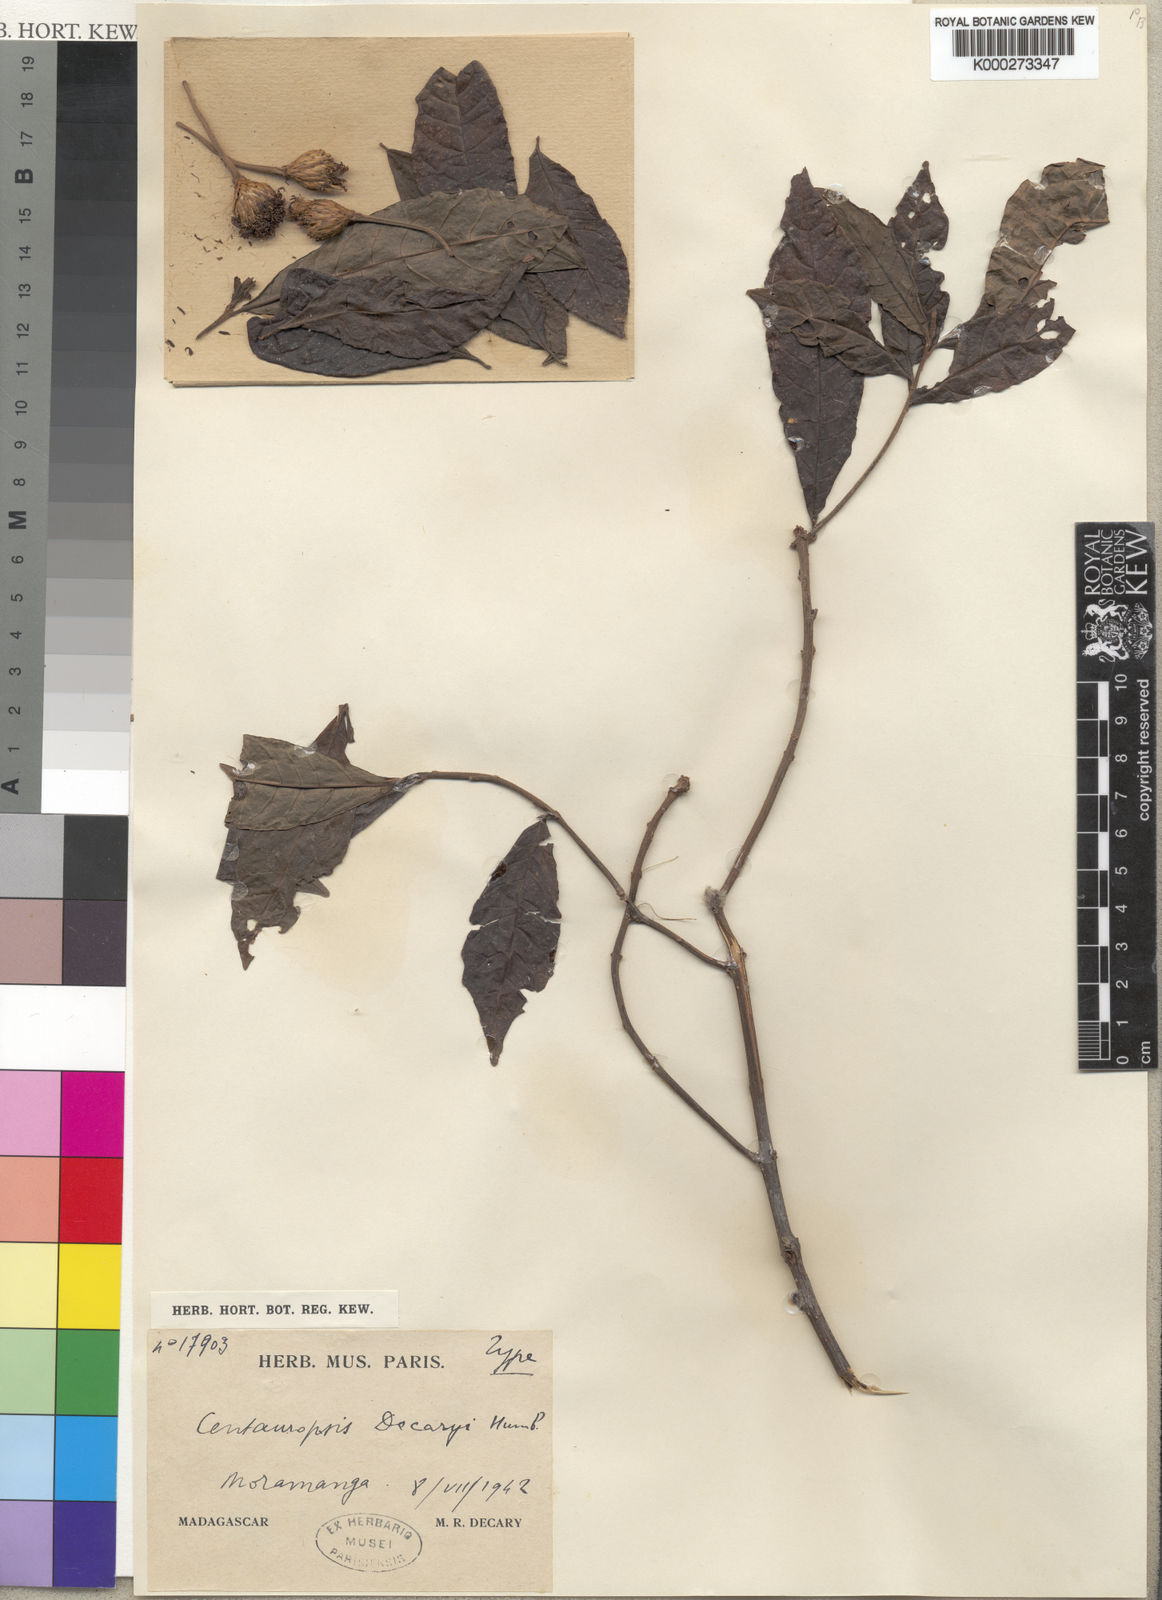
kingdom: Plantae
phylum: Tracheophyta
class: Magnoliopsida
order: Asterales
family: Asteraceae
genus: Centauropsis
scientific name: Centauropsis decaryi
